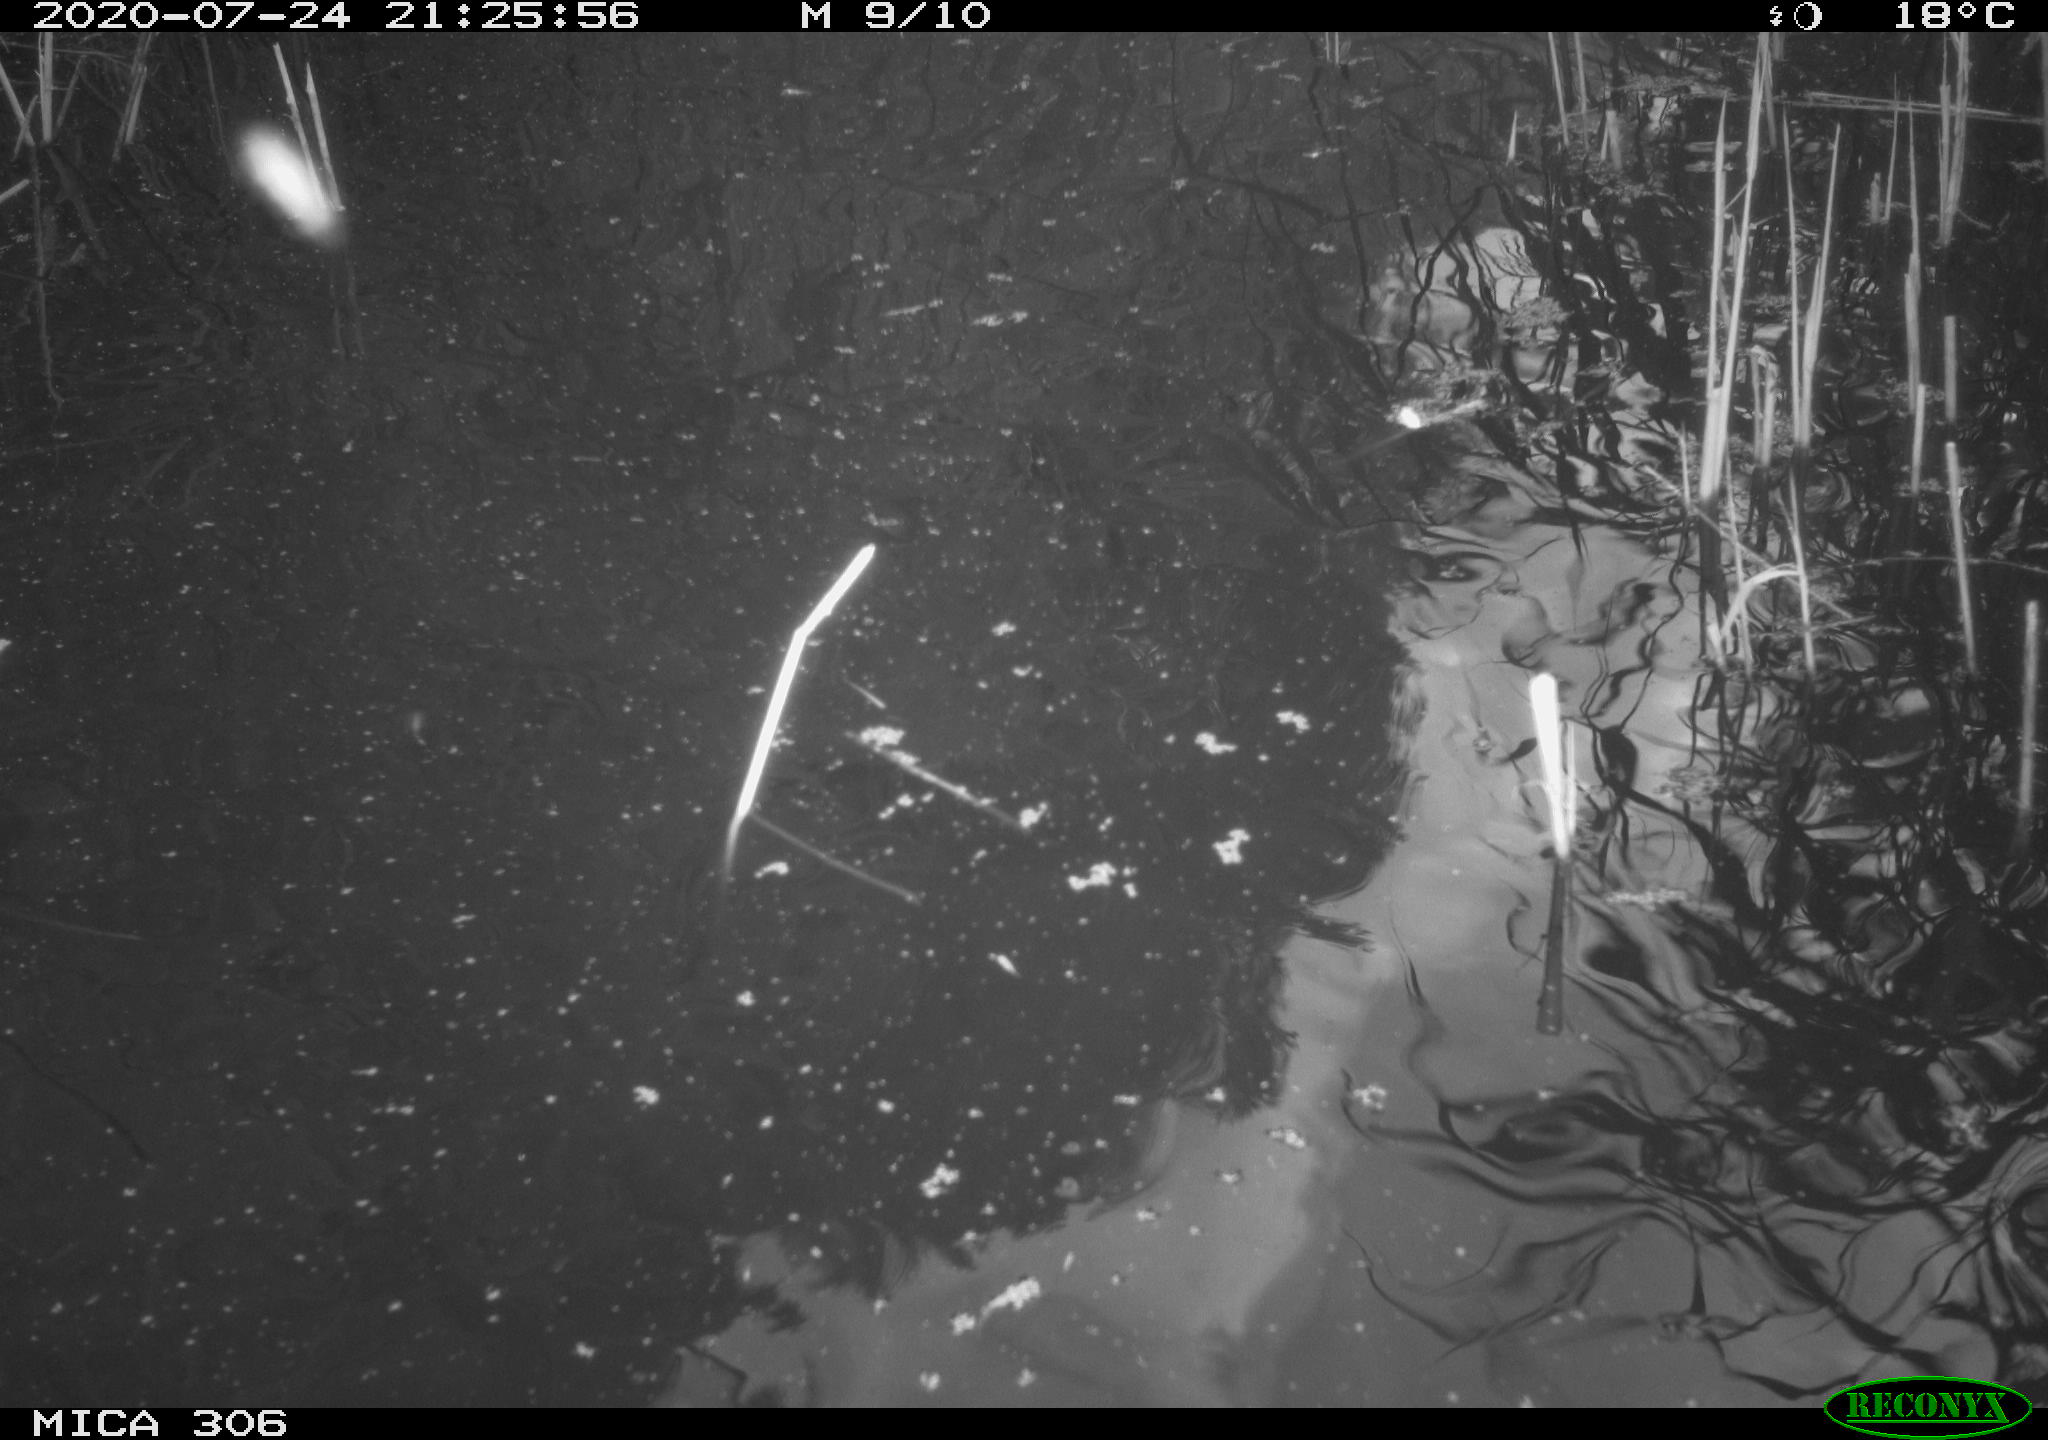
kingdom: Animalia
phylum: Chordata
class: Aves
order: Anseriformes
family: Anatidae
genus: Anas
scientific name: Anas platyrhynchos
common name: Mallard
